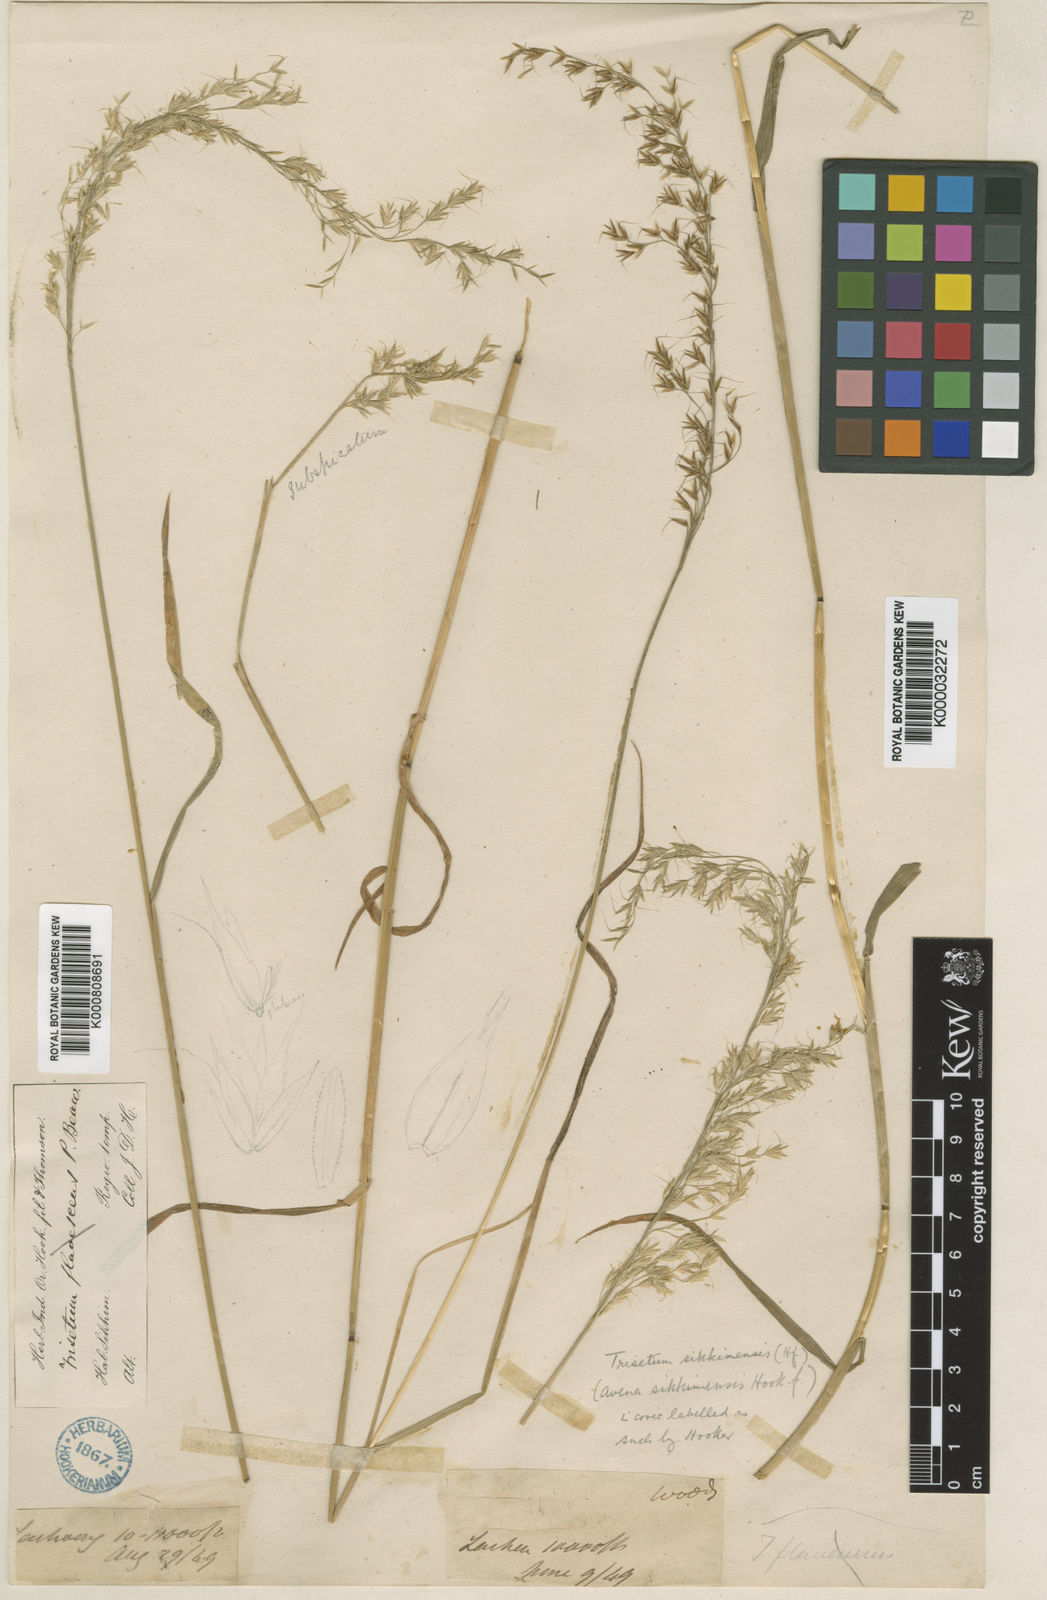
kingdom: Plantae
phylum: Tracheophyta
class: Liliopsida
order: Poales
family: Poaceae
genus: Trisetum
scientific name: Trisetum flavescens
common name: Yellow oat-grass
